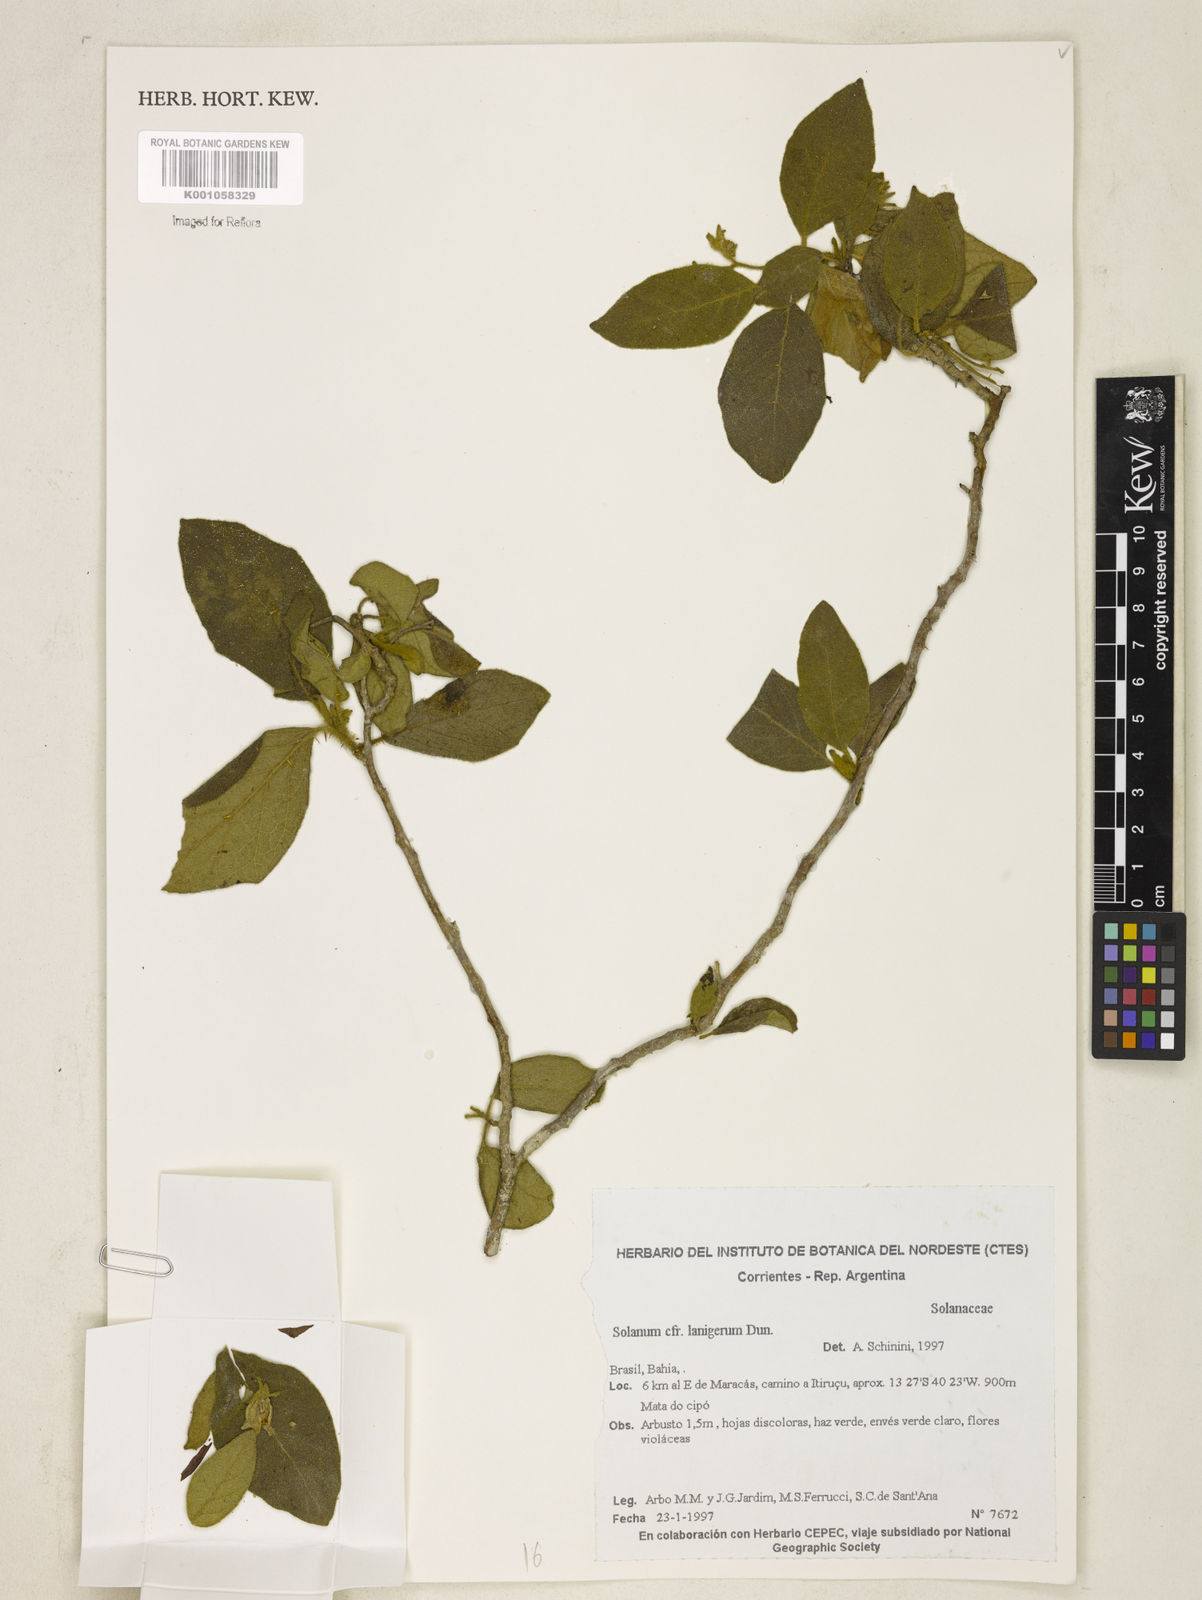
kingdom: Plantae
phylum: Tracheophyta
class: Magnoliopsida
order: Solanales
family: Solanaceae
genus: Solanum
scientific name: Solanum subumbellatum
